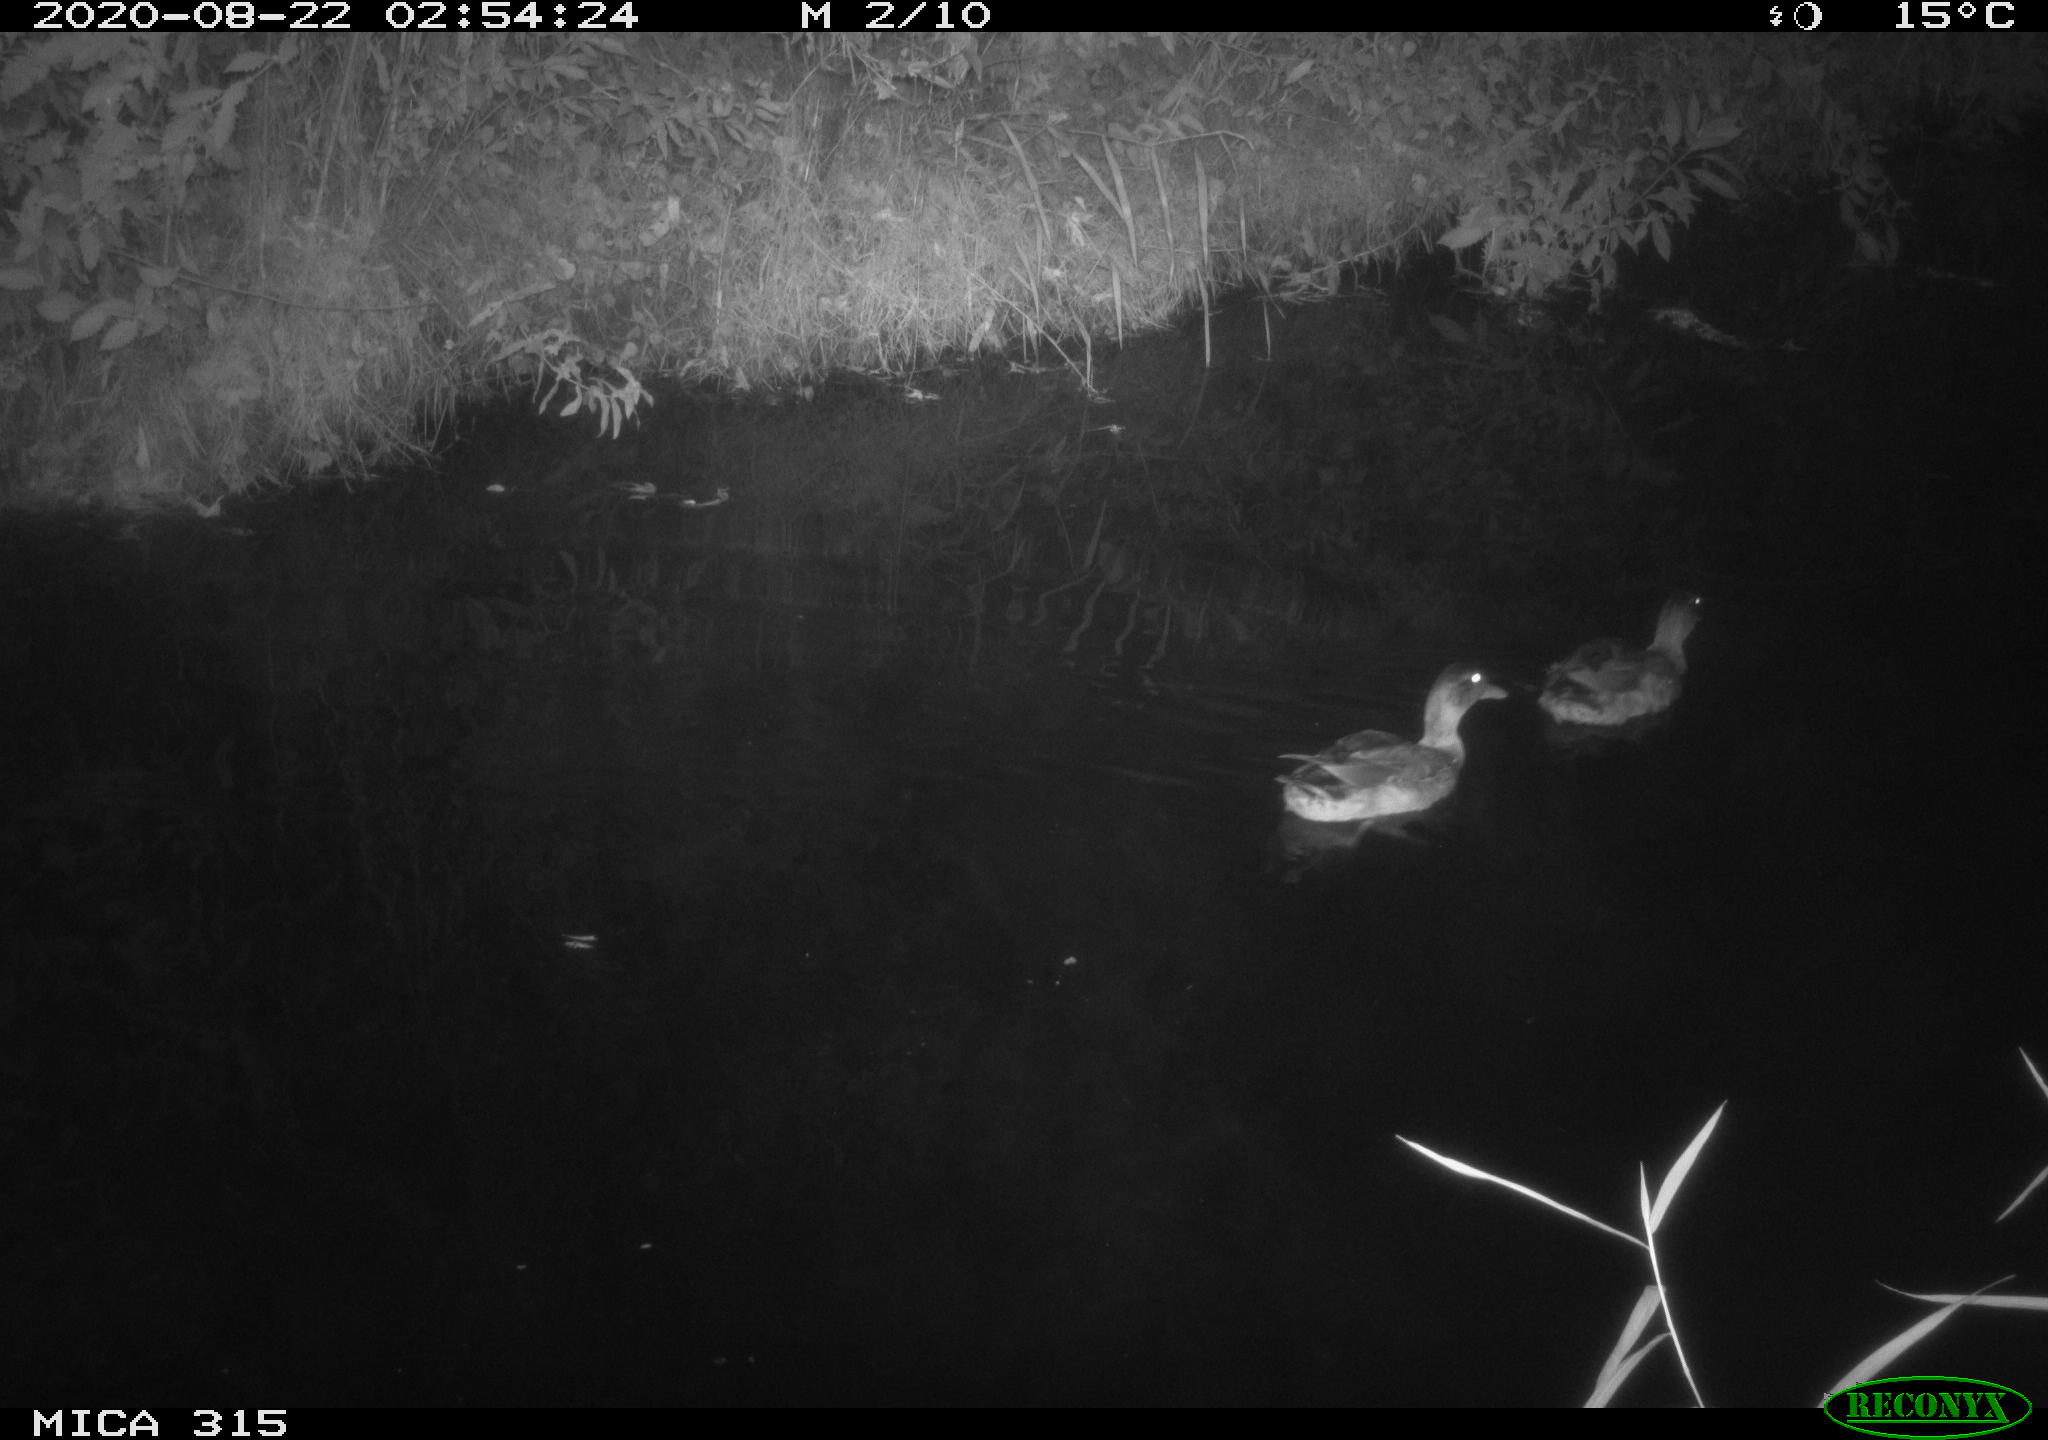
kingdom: Animalia
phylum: Chordata
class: Aves
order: Anseriformes
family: Anatidae
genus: Anas
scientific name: Anas platyrhynchos
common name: Mallard
